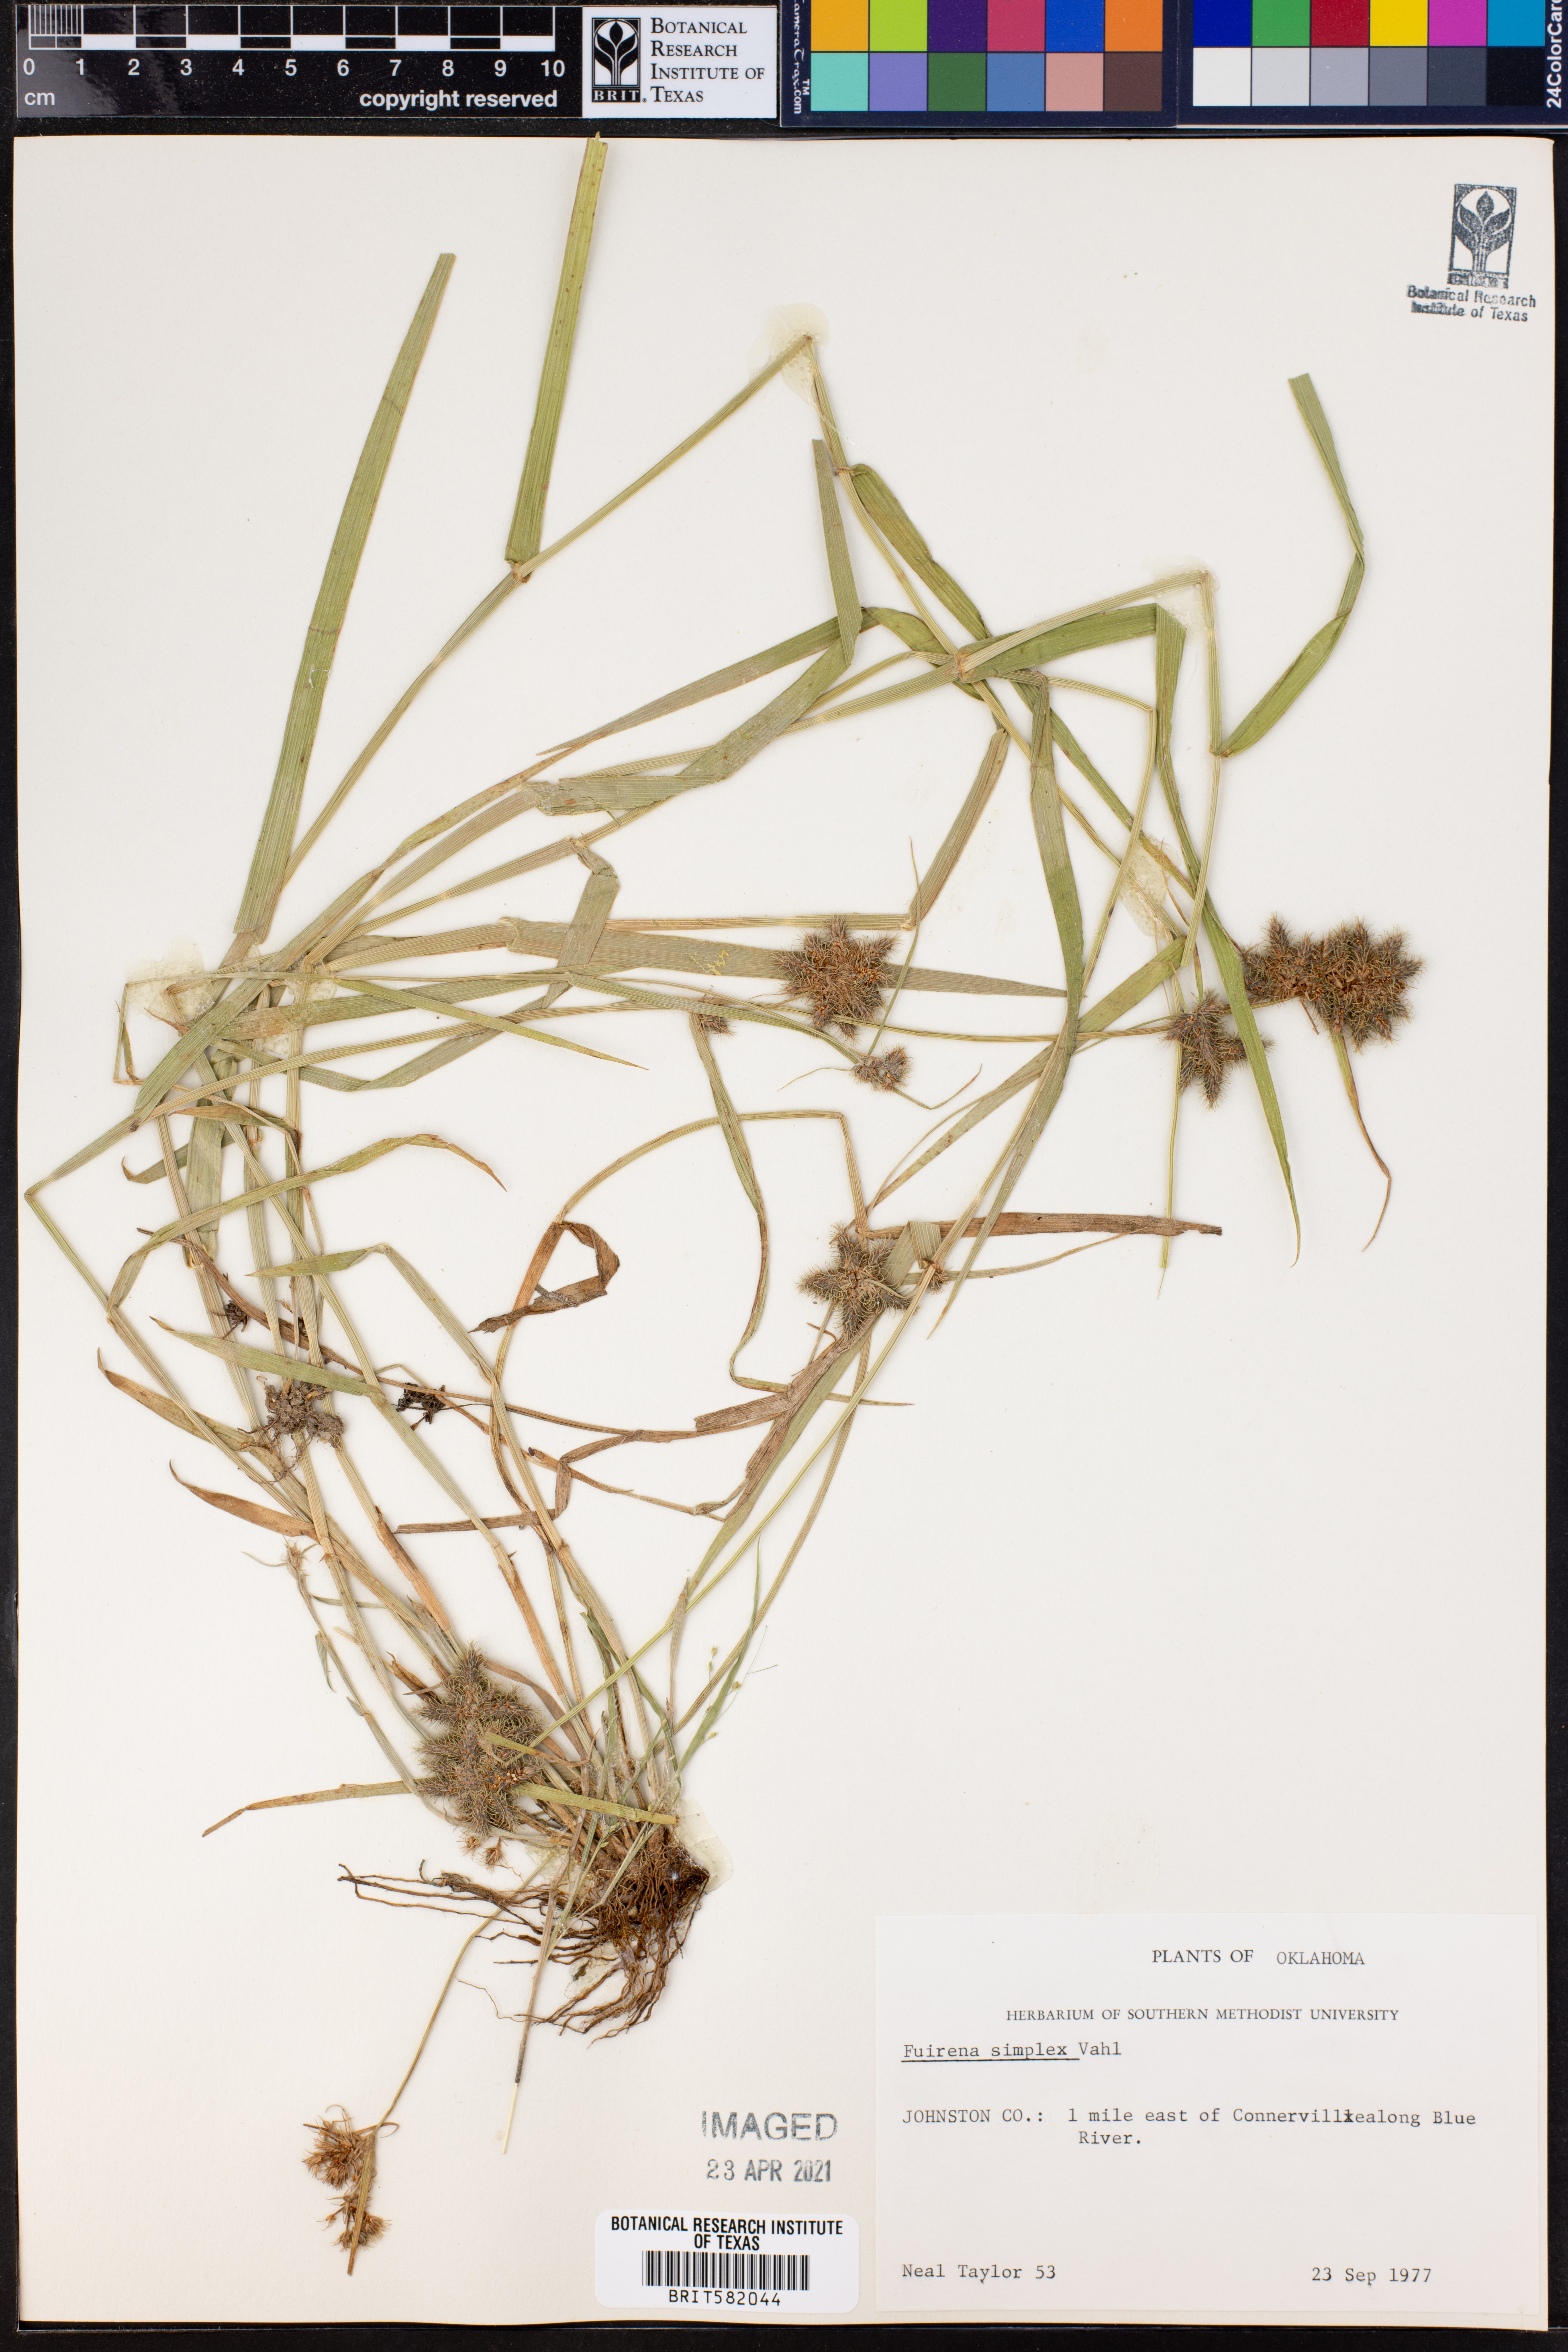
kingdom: Plantae
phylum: Tracheophyta
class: Liliopsida
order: Poales
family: Cyperaceae
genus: Fuirena
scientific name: Fuirena simplex
